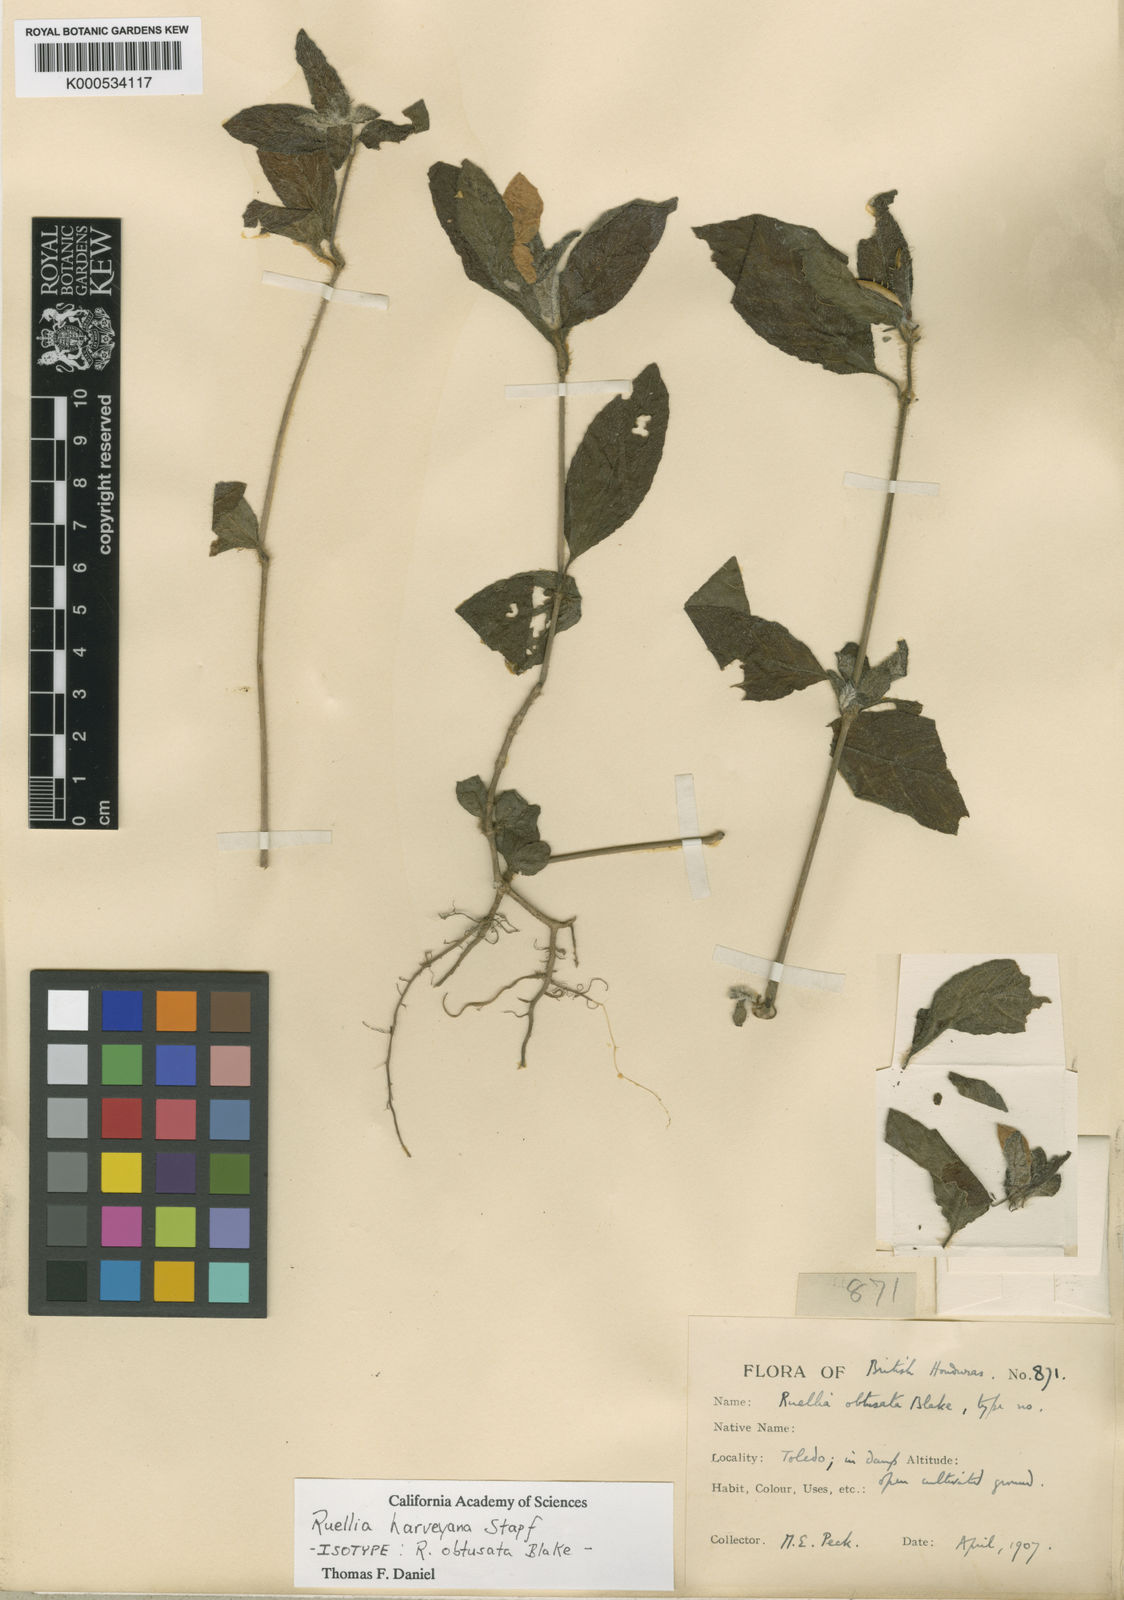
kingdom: Plantae
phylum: Tracheophyta
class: Magnoliopsida
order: Lamiales
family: Acanthaceae
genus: Ruellia
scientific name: Ruellia harveyana
